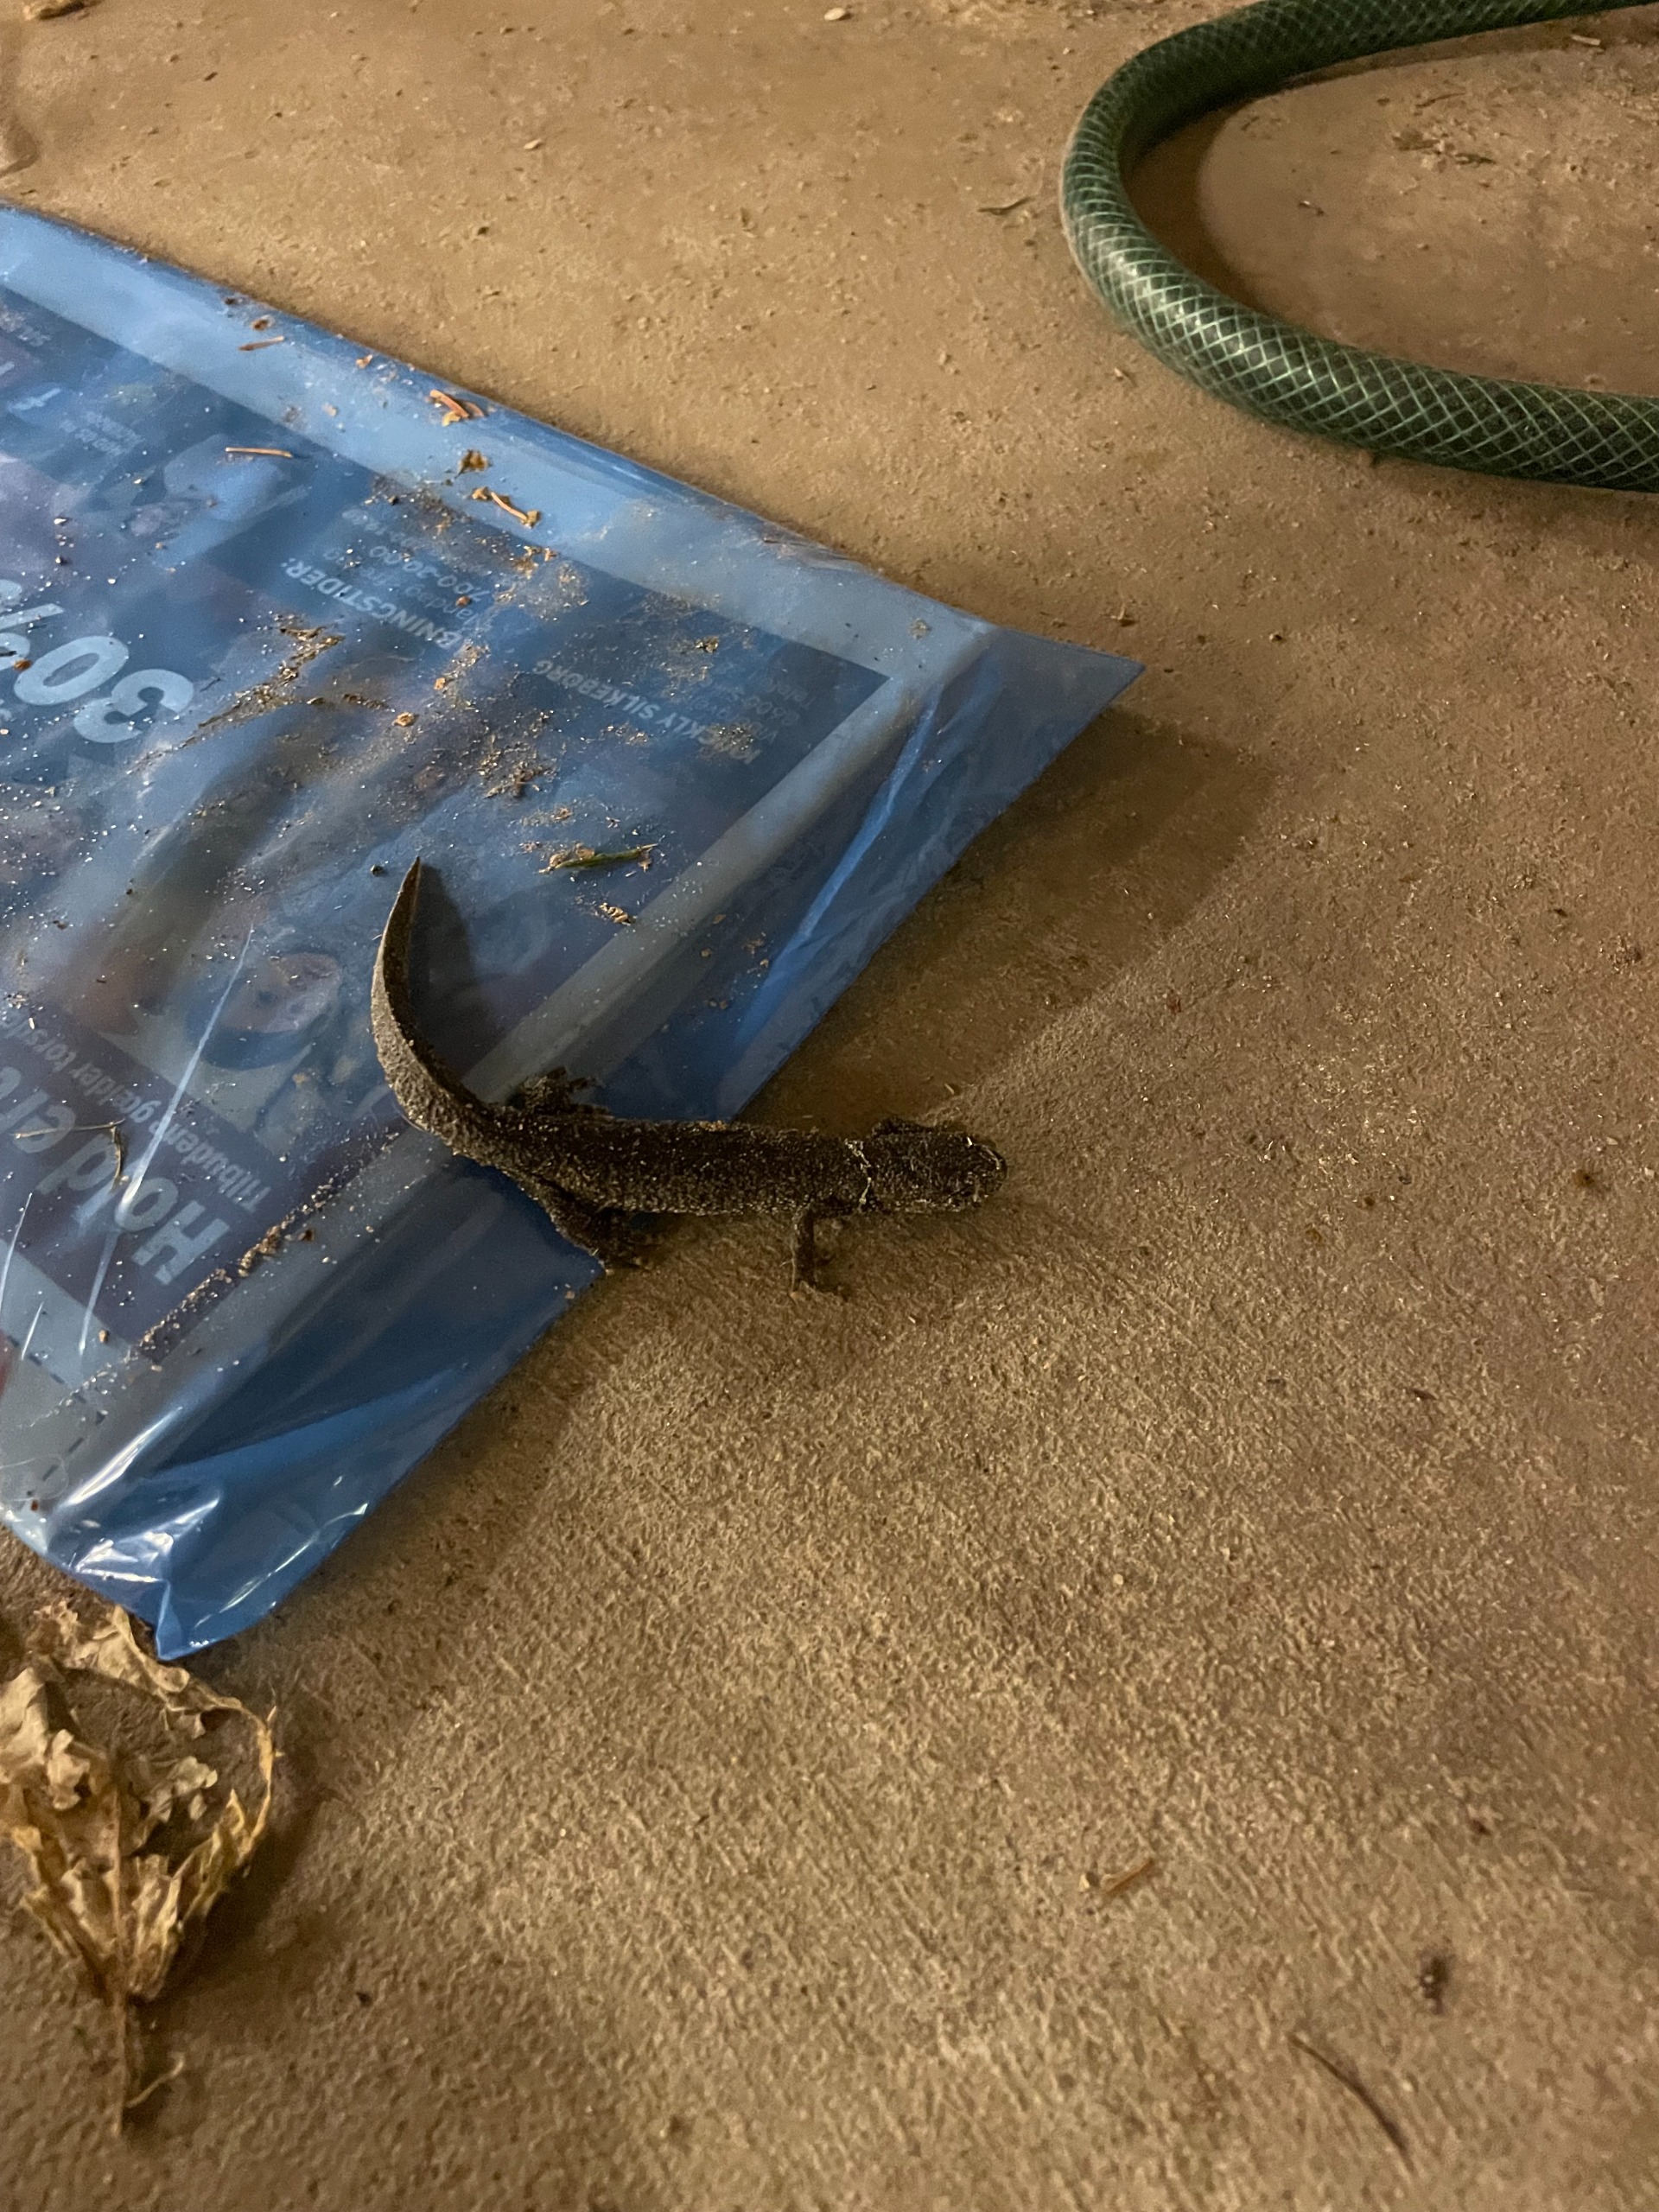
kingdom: Animalia
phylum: Chordata
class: Amphibia
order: Caudata
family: Salamandridae
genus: Triturus
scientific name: Triturus cristatus
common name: Stor vandsalamander
